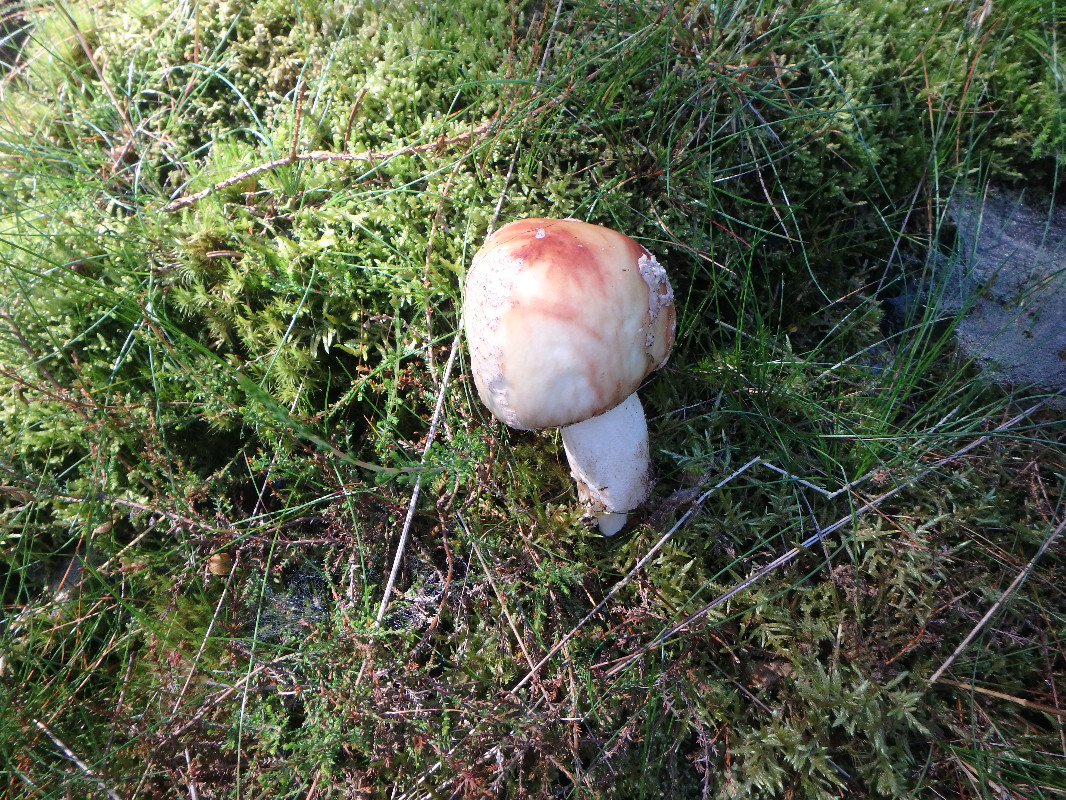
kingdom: Fungi
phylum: Basidiomycota
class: Agaricomycetes
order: Agaricales
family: Amanitaceae
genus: Amanita
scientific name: Amanita rubescens
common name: rødmende fluesvamp
